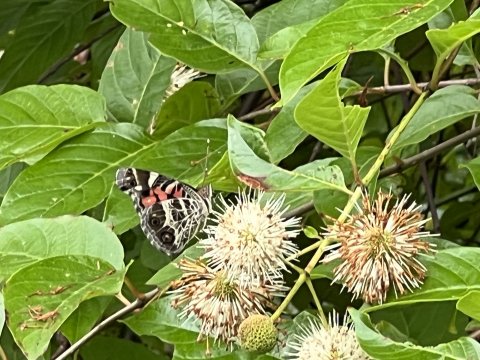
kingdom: Animalia
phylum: Arthropoda
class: Insecta
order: Lepidoptera
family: Nymphalidae
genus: Vanessa
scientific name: Vanessa virginiensis
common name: American Lady
